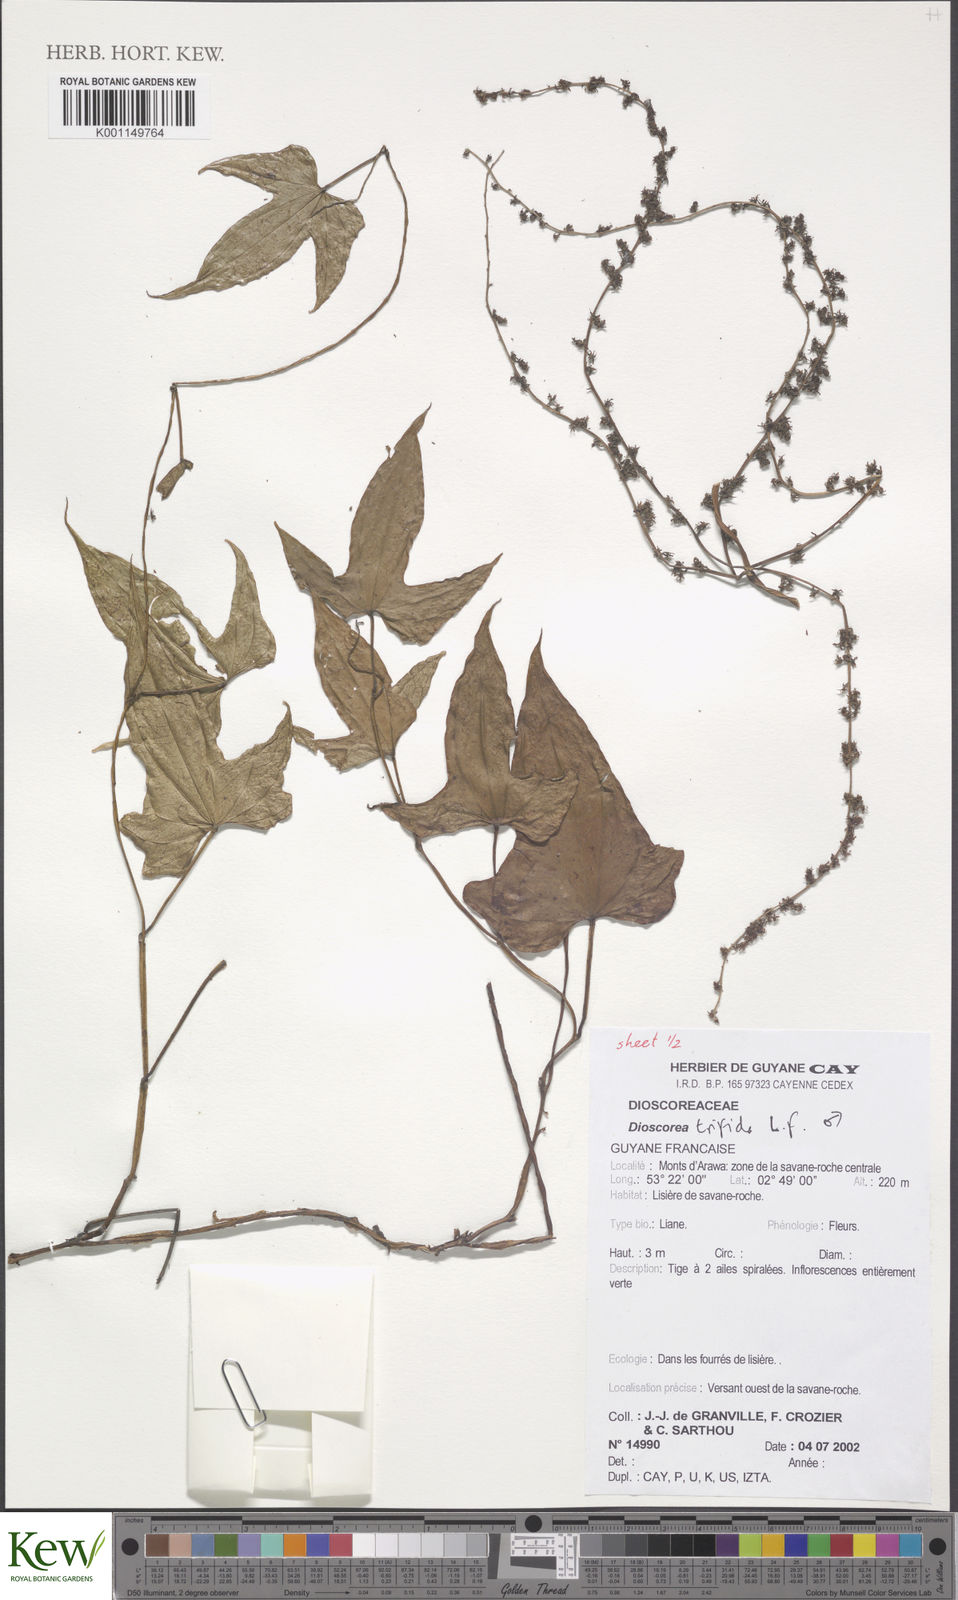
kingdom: Plantae
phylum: Tracheophyta
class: Liliopsida
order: Dioscoreales
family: Dioscoreaceae
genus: Dioscorea
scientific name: Dioscorea trifida
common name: Cush-cush
